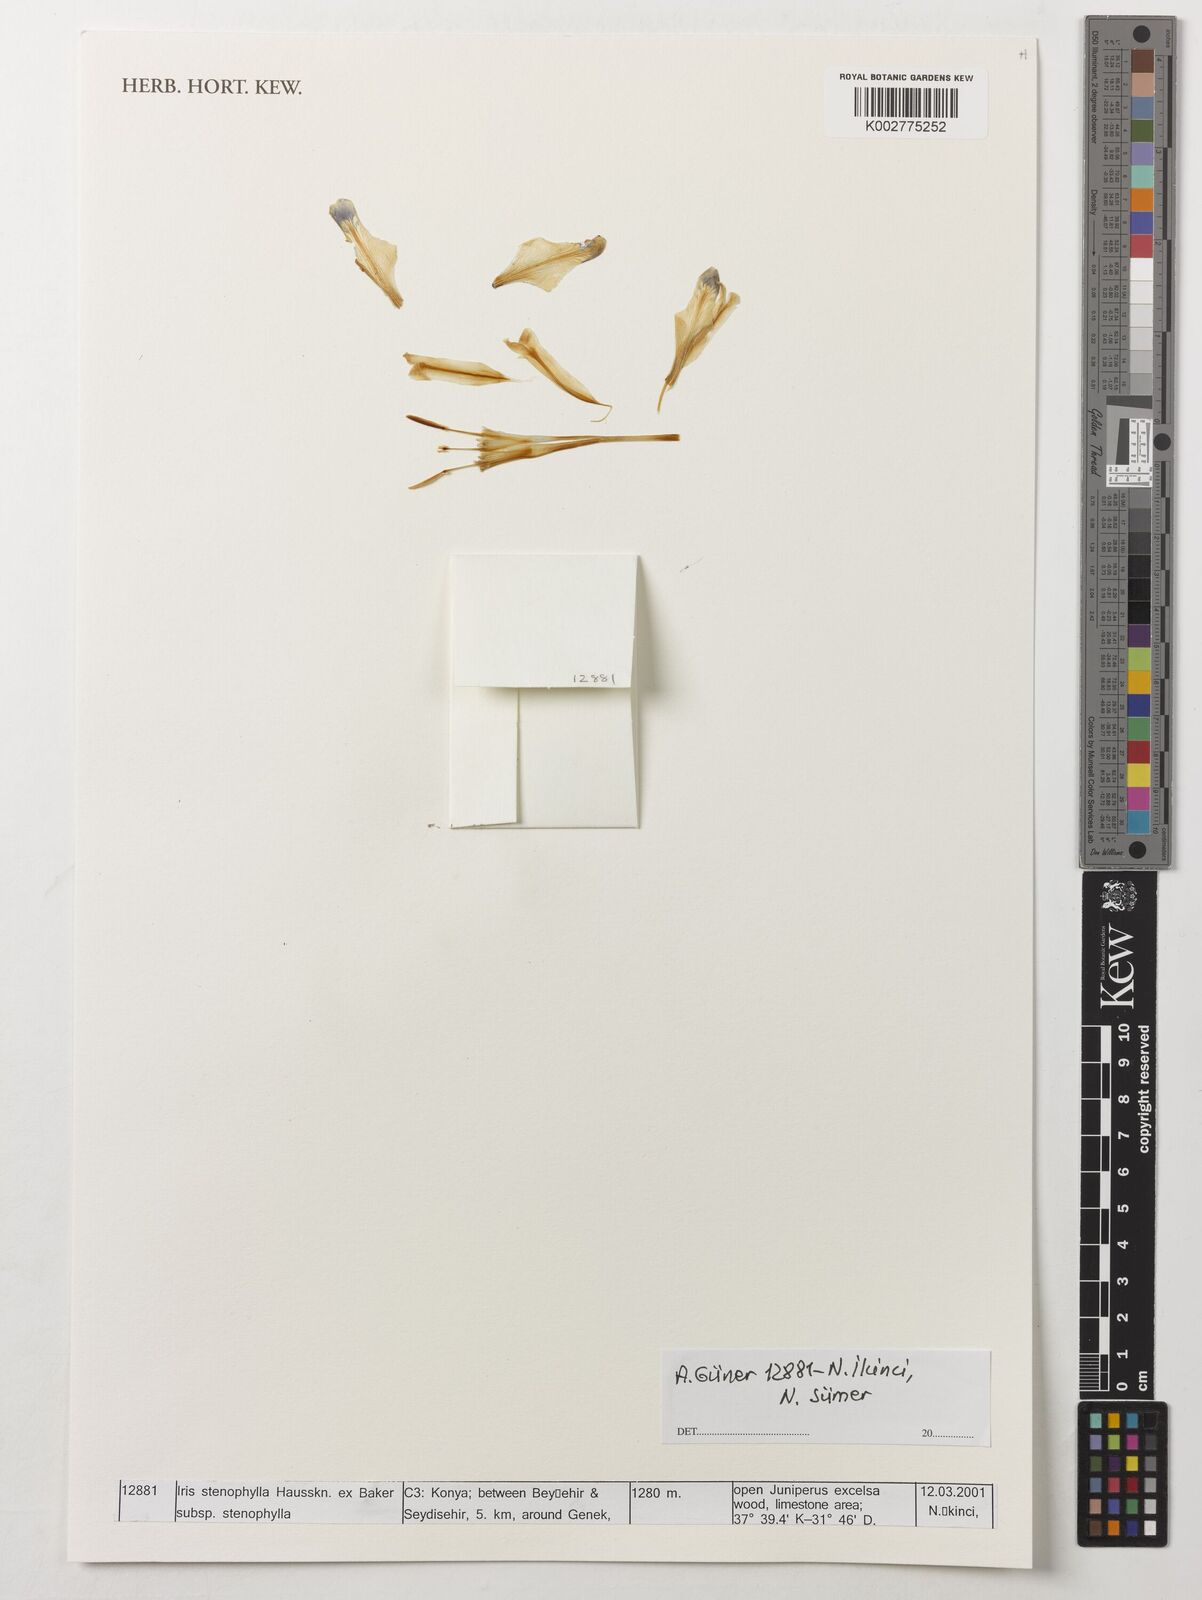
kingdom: Plantae
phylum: Tracheophyta
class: Liliopsida
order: Asparagales
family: Iridaceae
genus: Iris
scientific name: Iris stenophylla
